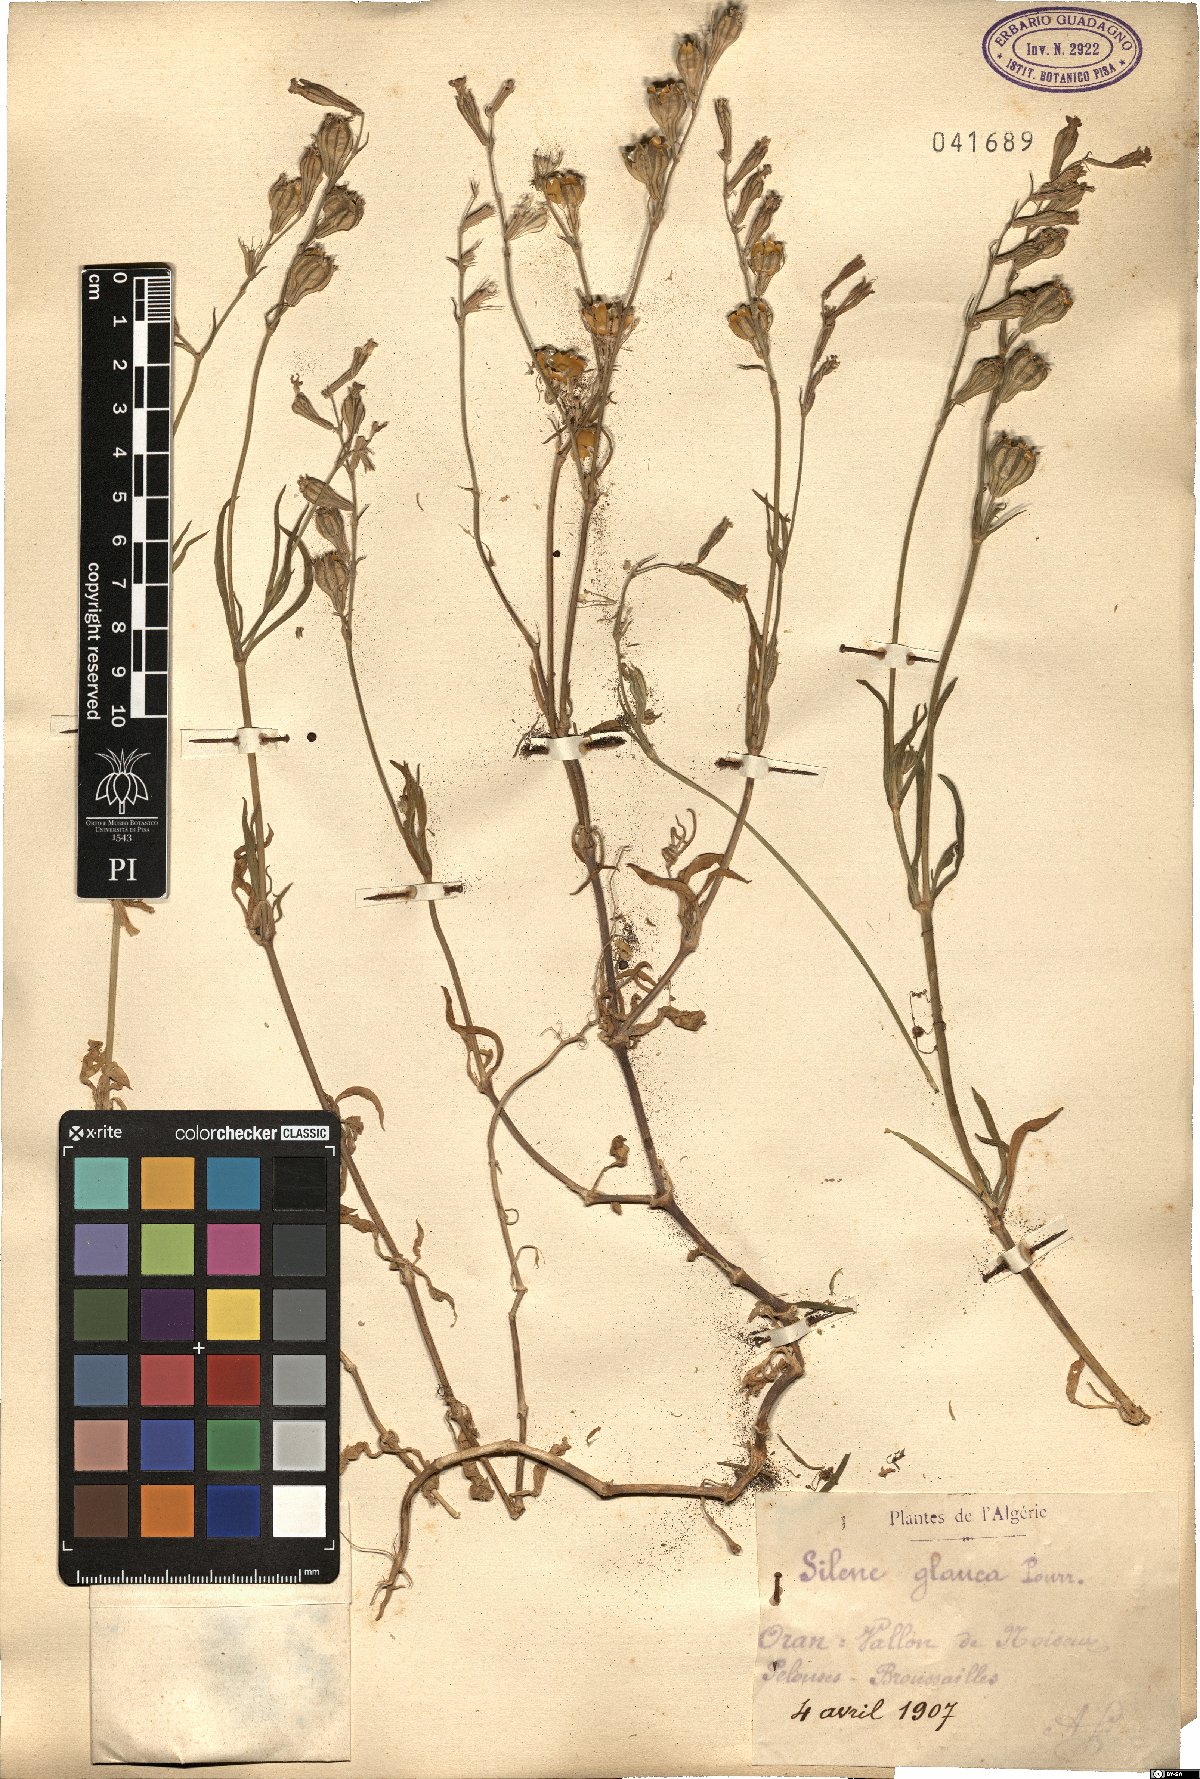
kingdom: Plantae
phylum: Tracheophyta
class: Magnoliopsida
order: Caryophyllales
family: Caryophyllaceae
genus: Silene
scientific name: Silene secundiflora
